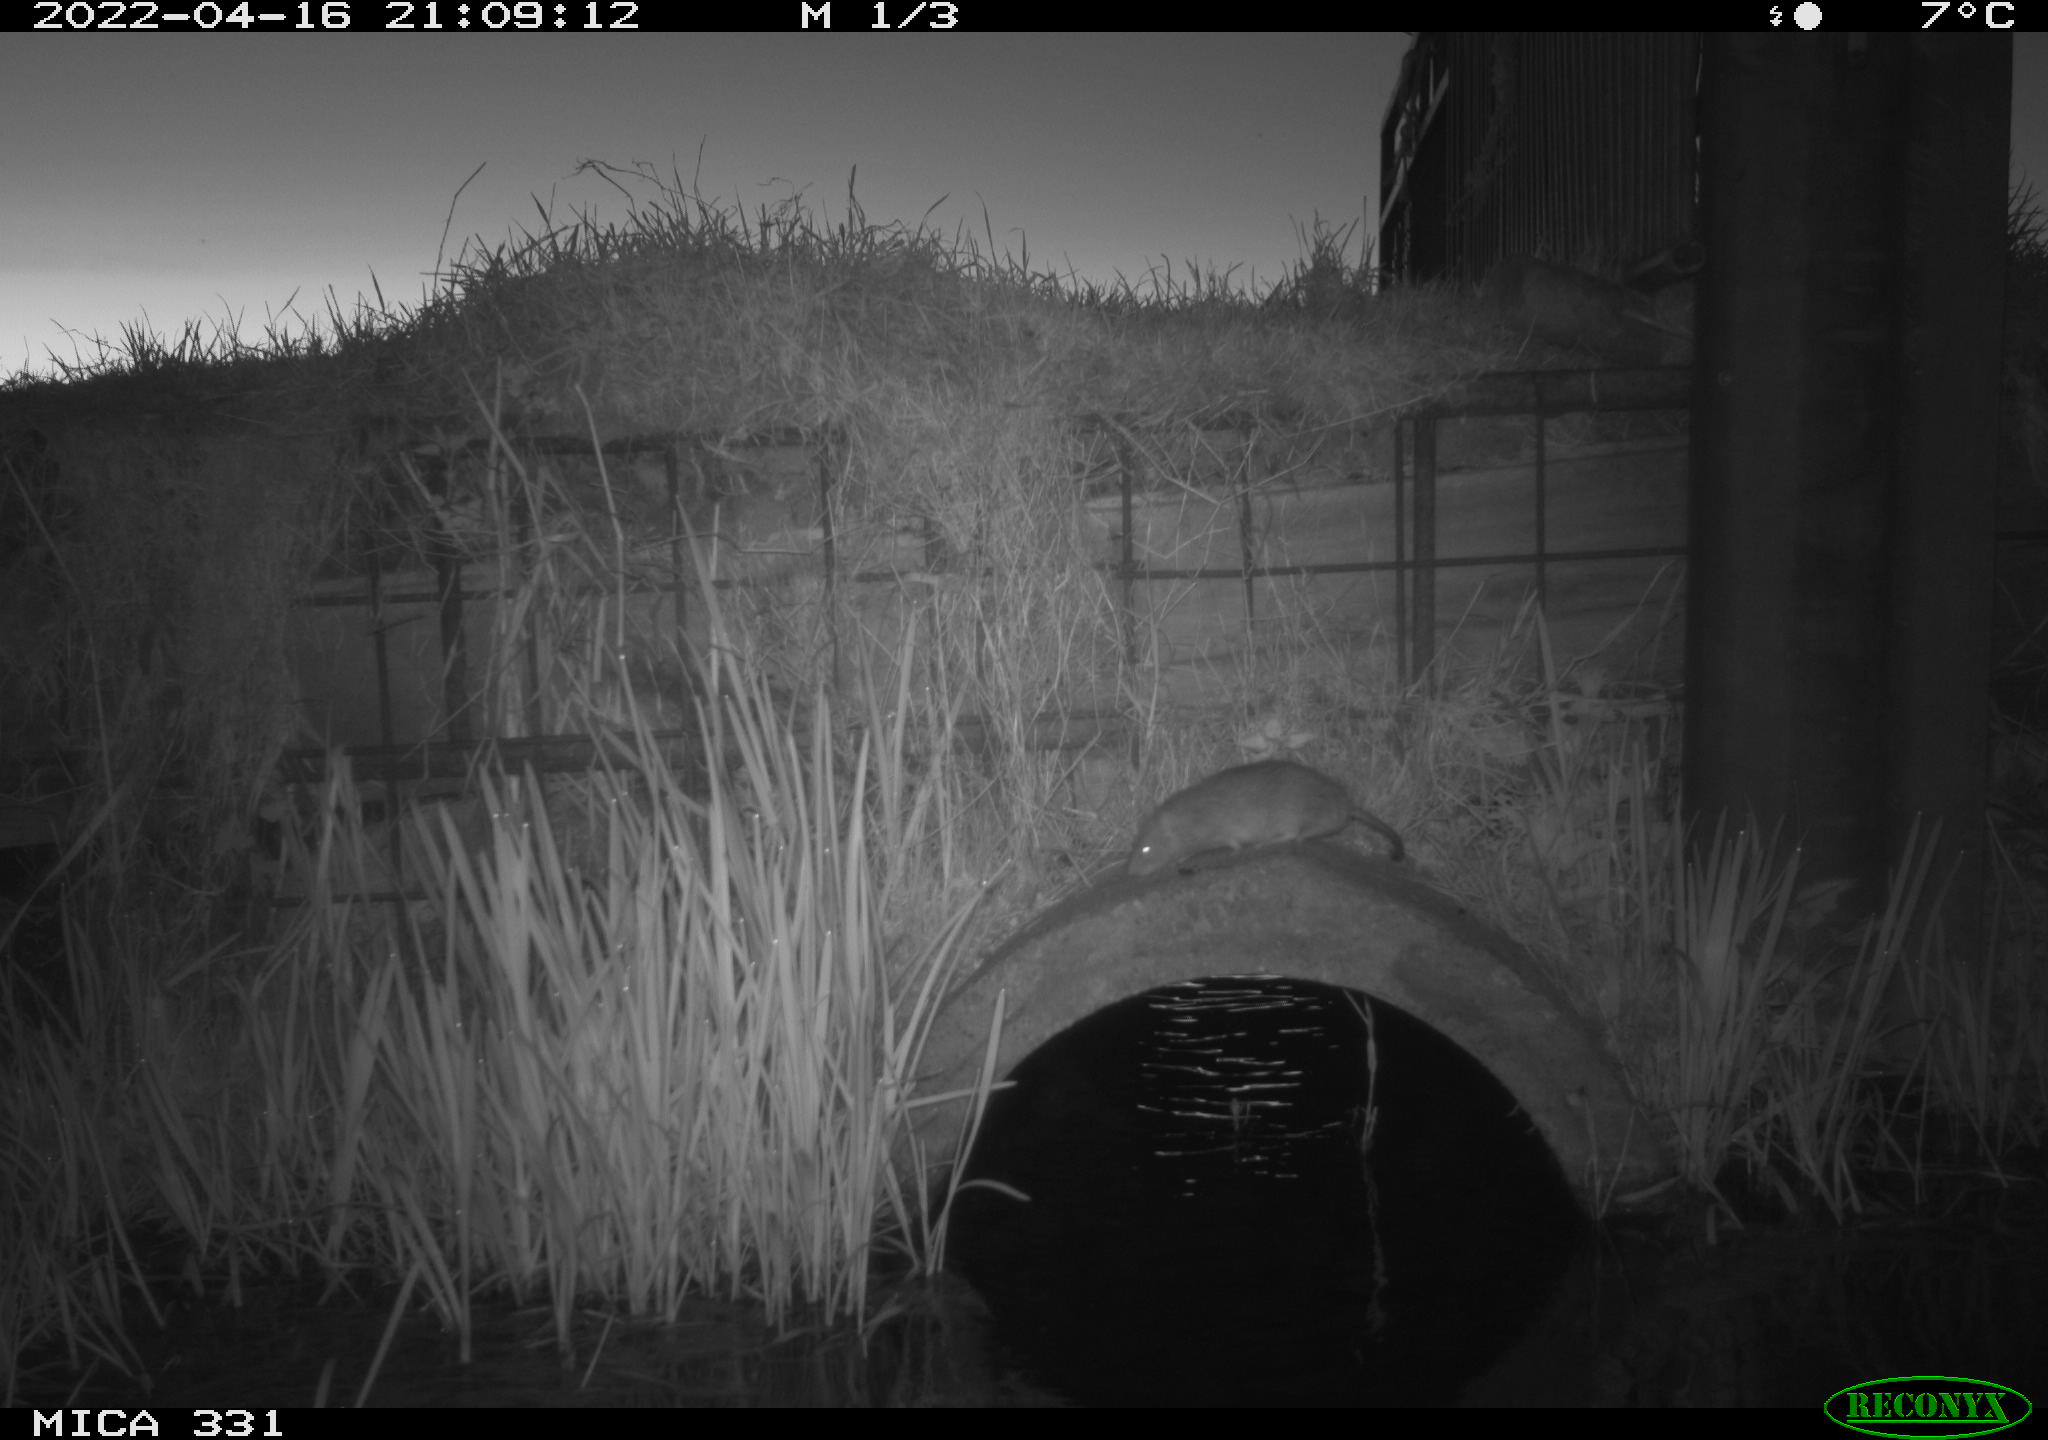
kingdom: Animalia
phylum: Chordata
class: Mammalia
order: Rodentia
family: Muridae
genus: Rattus
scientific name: Rattus norvegicus
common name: Brown rat
